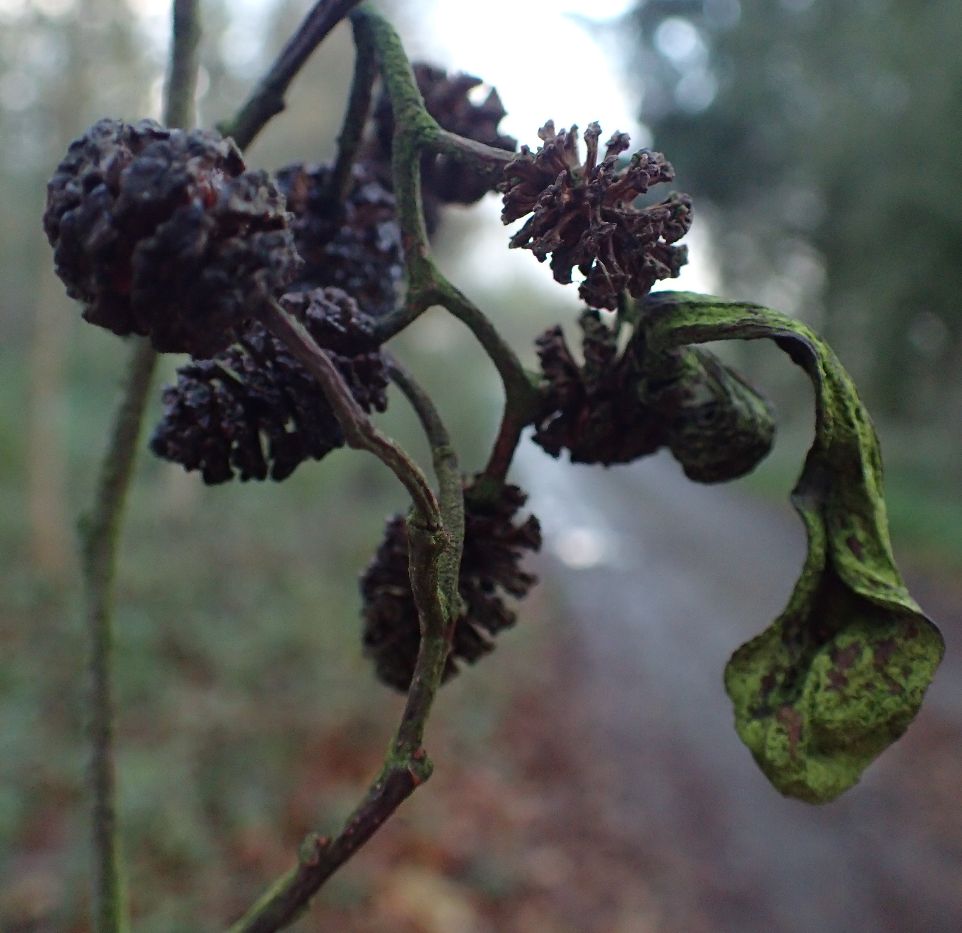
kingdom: Fungi
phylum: Ascomycota
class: Taphrinomycetes
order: Taphrinales
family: Taphrinaceae
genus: Taphrina
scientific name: Taphrina alni
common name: Alder tongue
